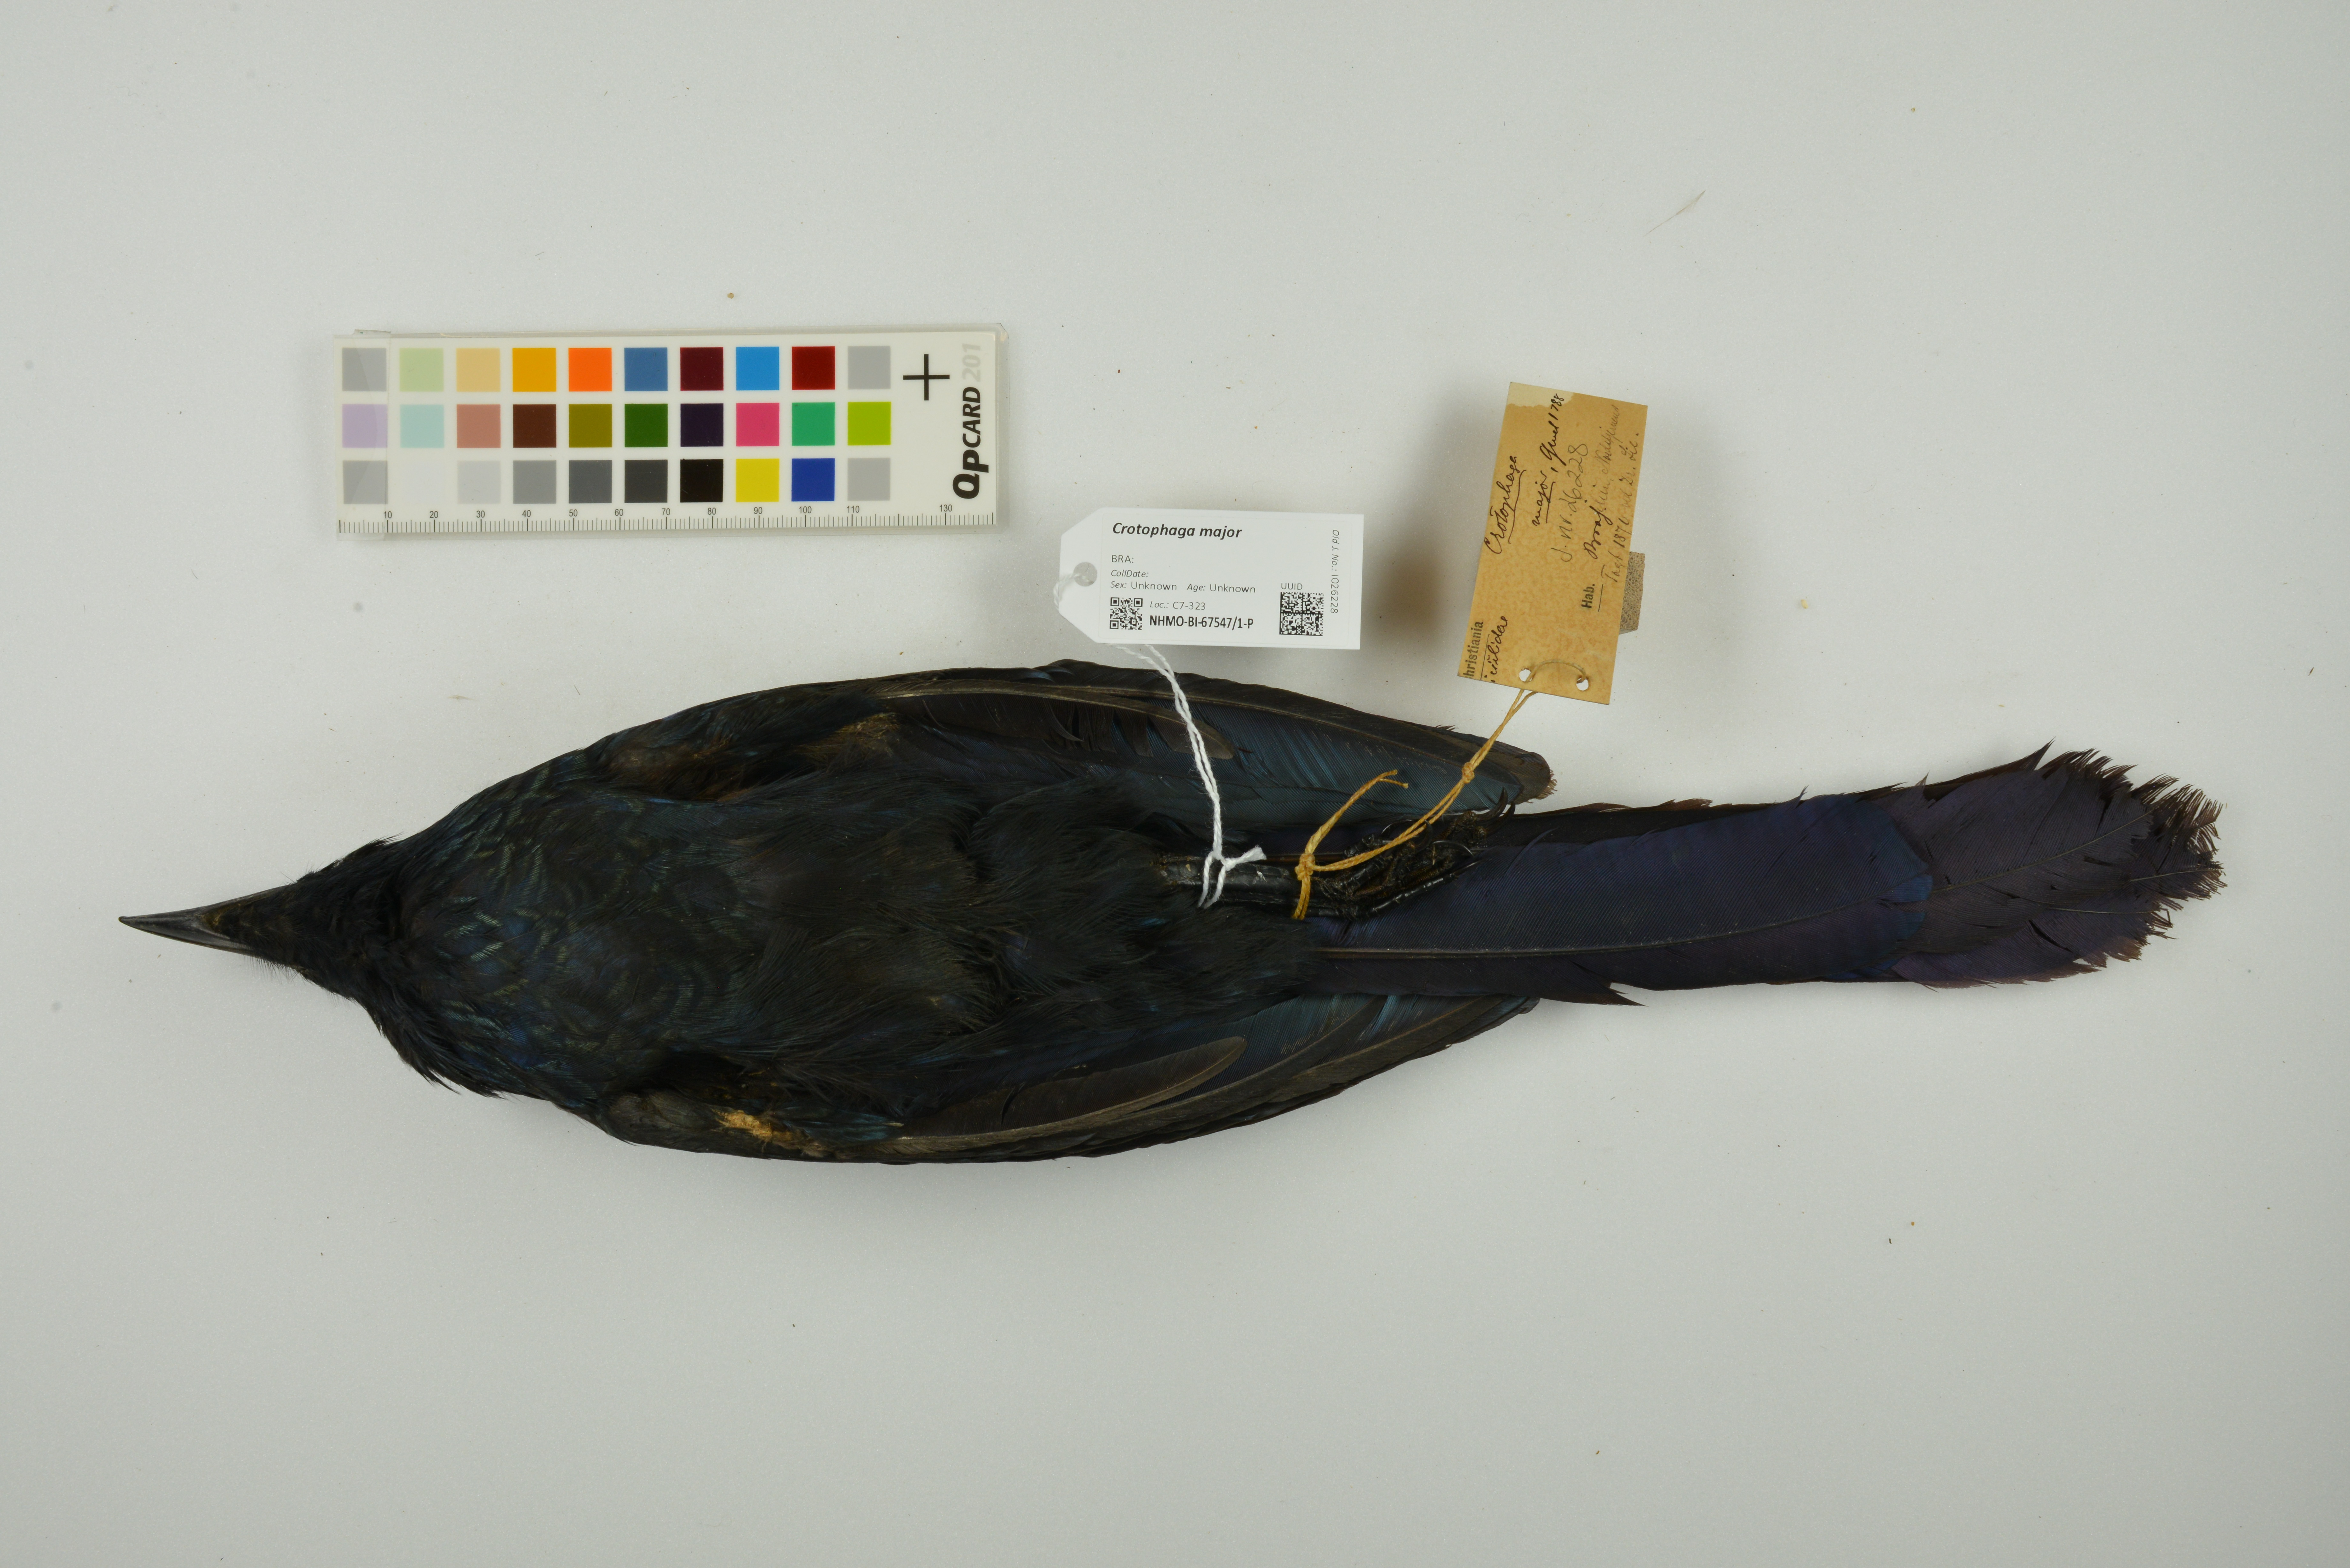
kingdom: Animalia
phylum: Chordata
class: Aves
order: Cuculiformes
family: Cuculidae
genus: Crotophaga
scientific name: Crotophaga major
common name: Greater ani
